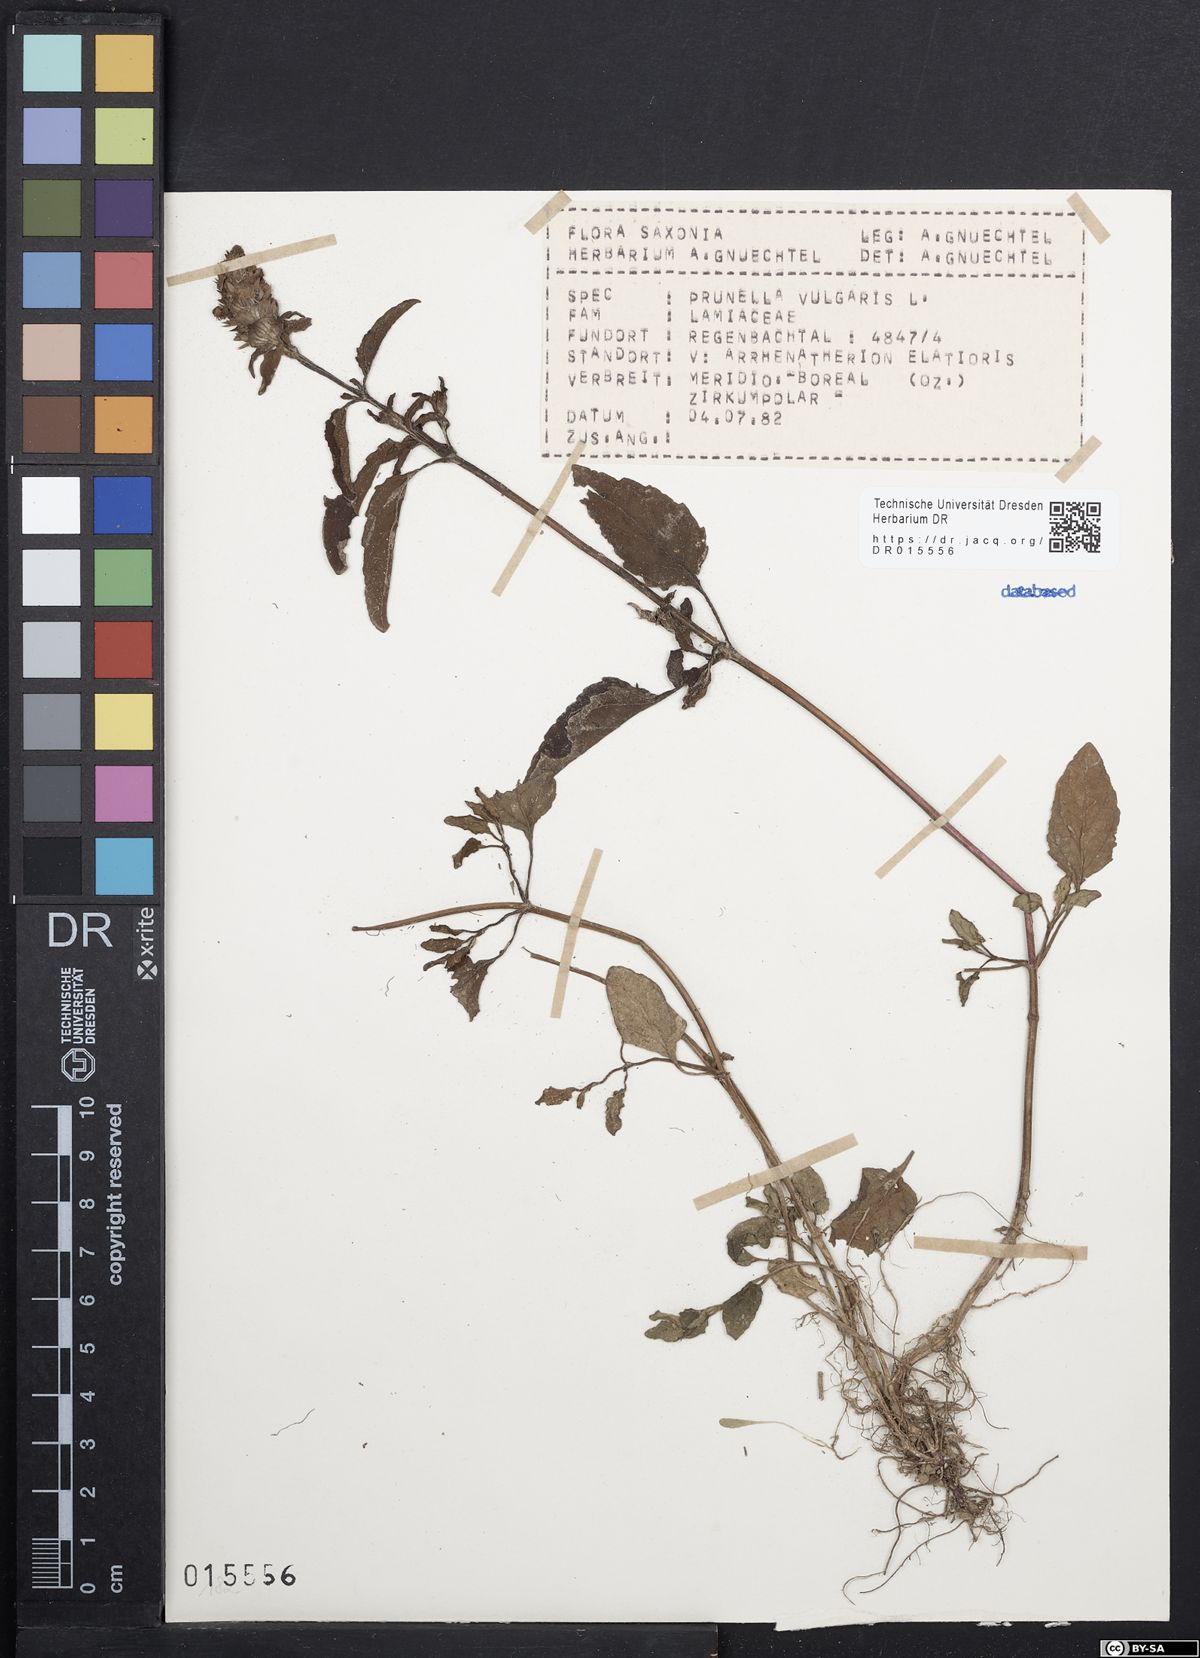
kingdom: Plantae
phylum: Tracheophyta
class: Magnoliopsida
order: Lamiales
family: Lamiaceae
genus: Prunella
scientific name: Prunella vulgaris
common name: Heal-all
